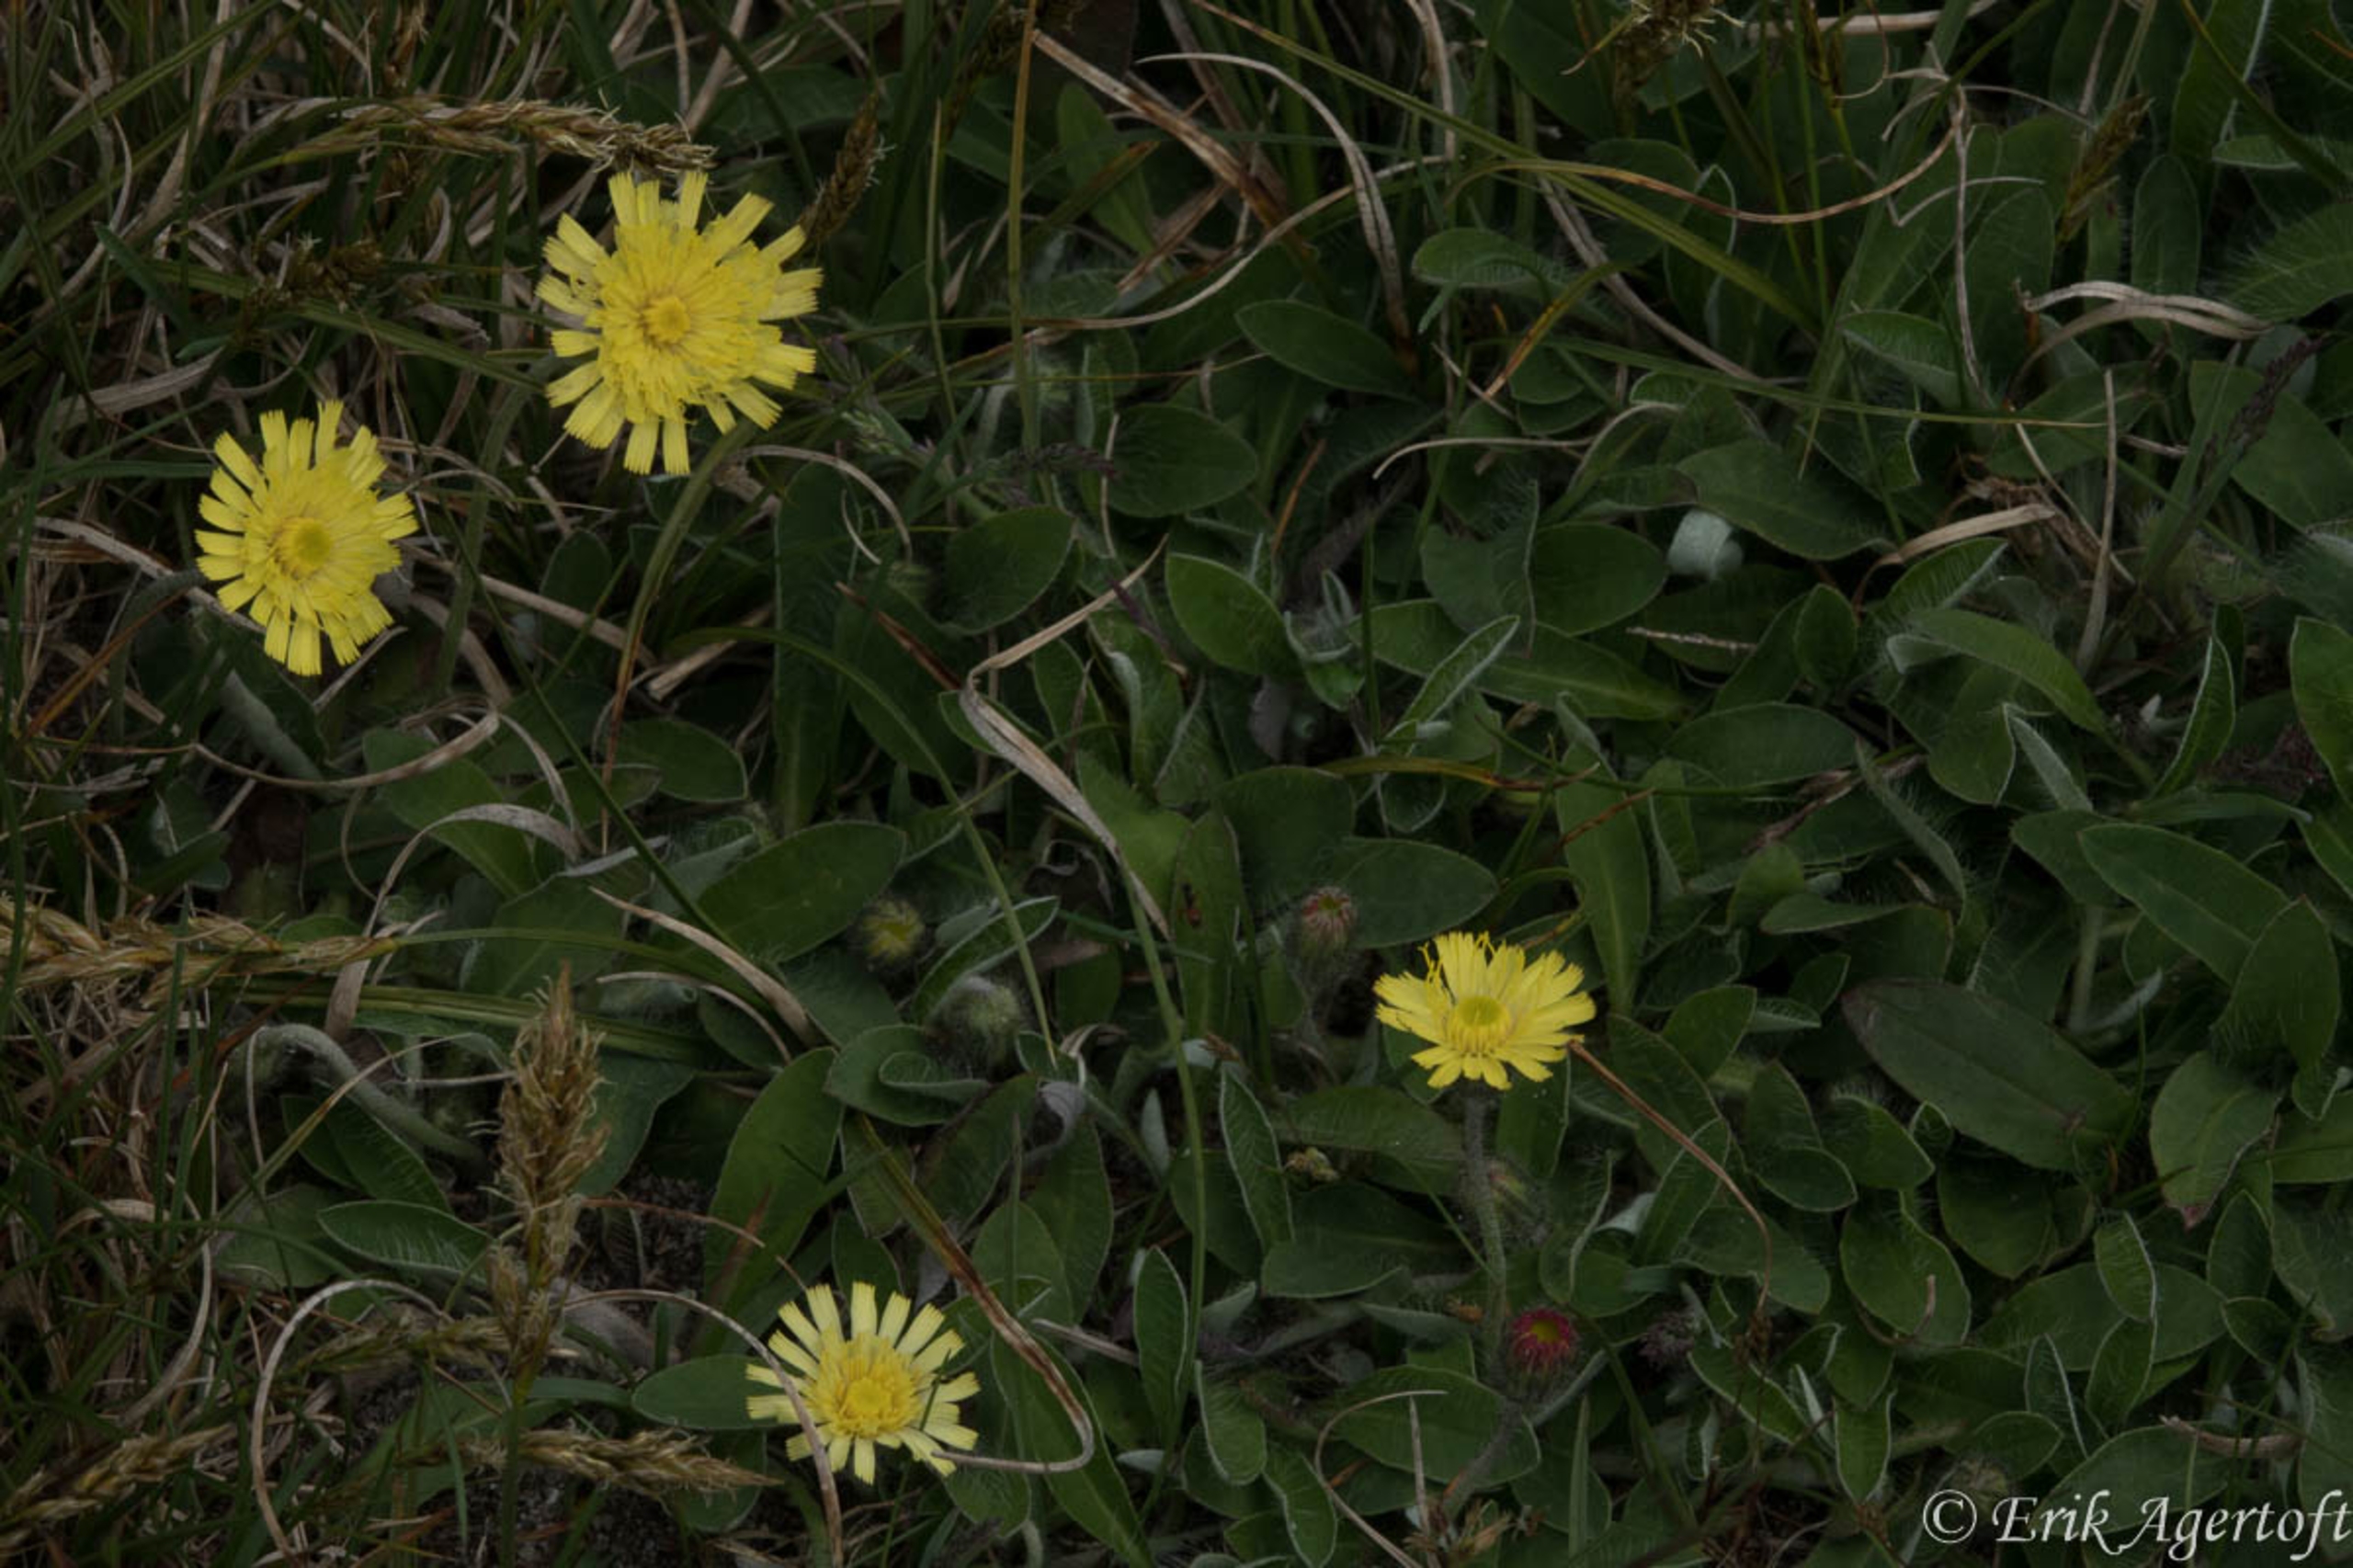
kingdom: Plantae
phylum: Tracheophyta
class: Magnoliopsida
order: Asterales
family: Asteraceae
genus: Pilosella
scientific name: Pilosella officinarum
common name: Håret høgeurt
